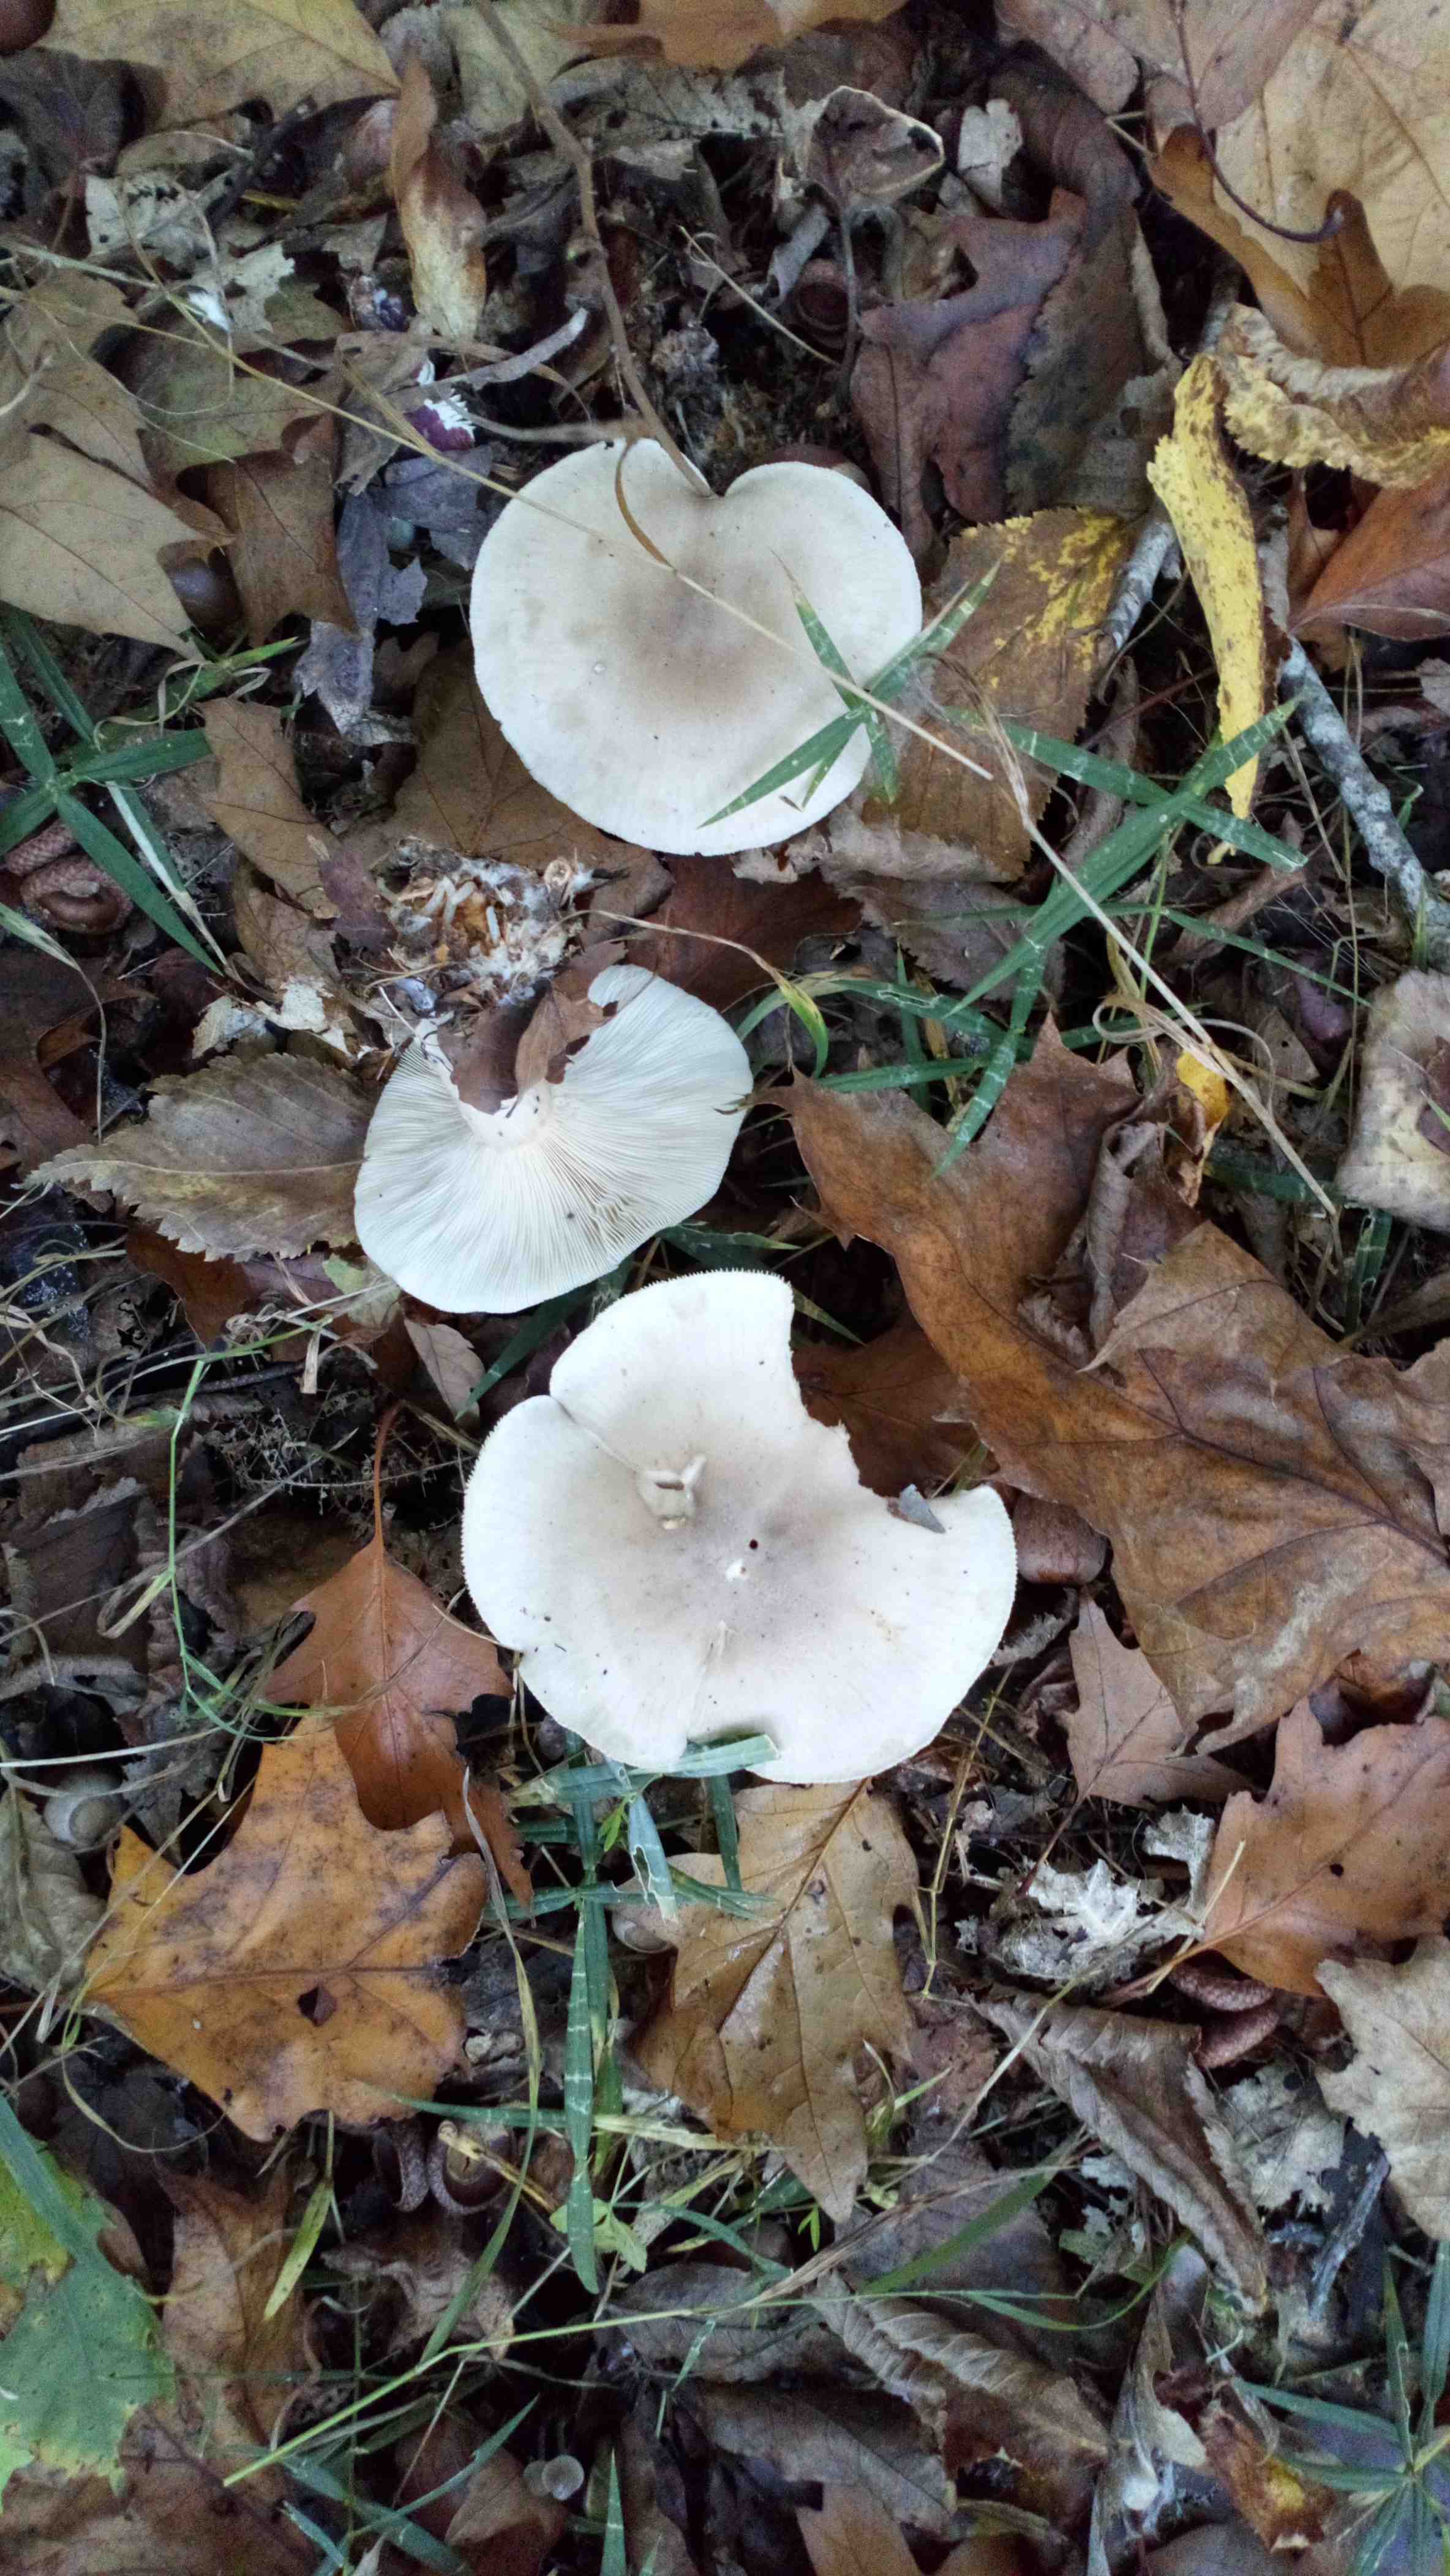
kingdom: Fungi
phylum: Basidiomycota
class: Agaricomycetes
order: Agaricales
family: Tricholomataceae
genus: Clitocybe
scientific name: Clitocybe nebularis
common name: tåge-tragthat
